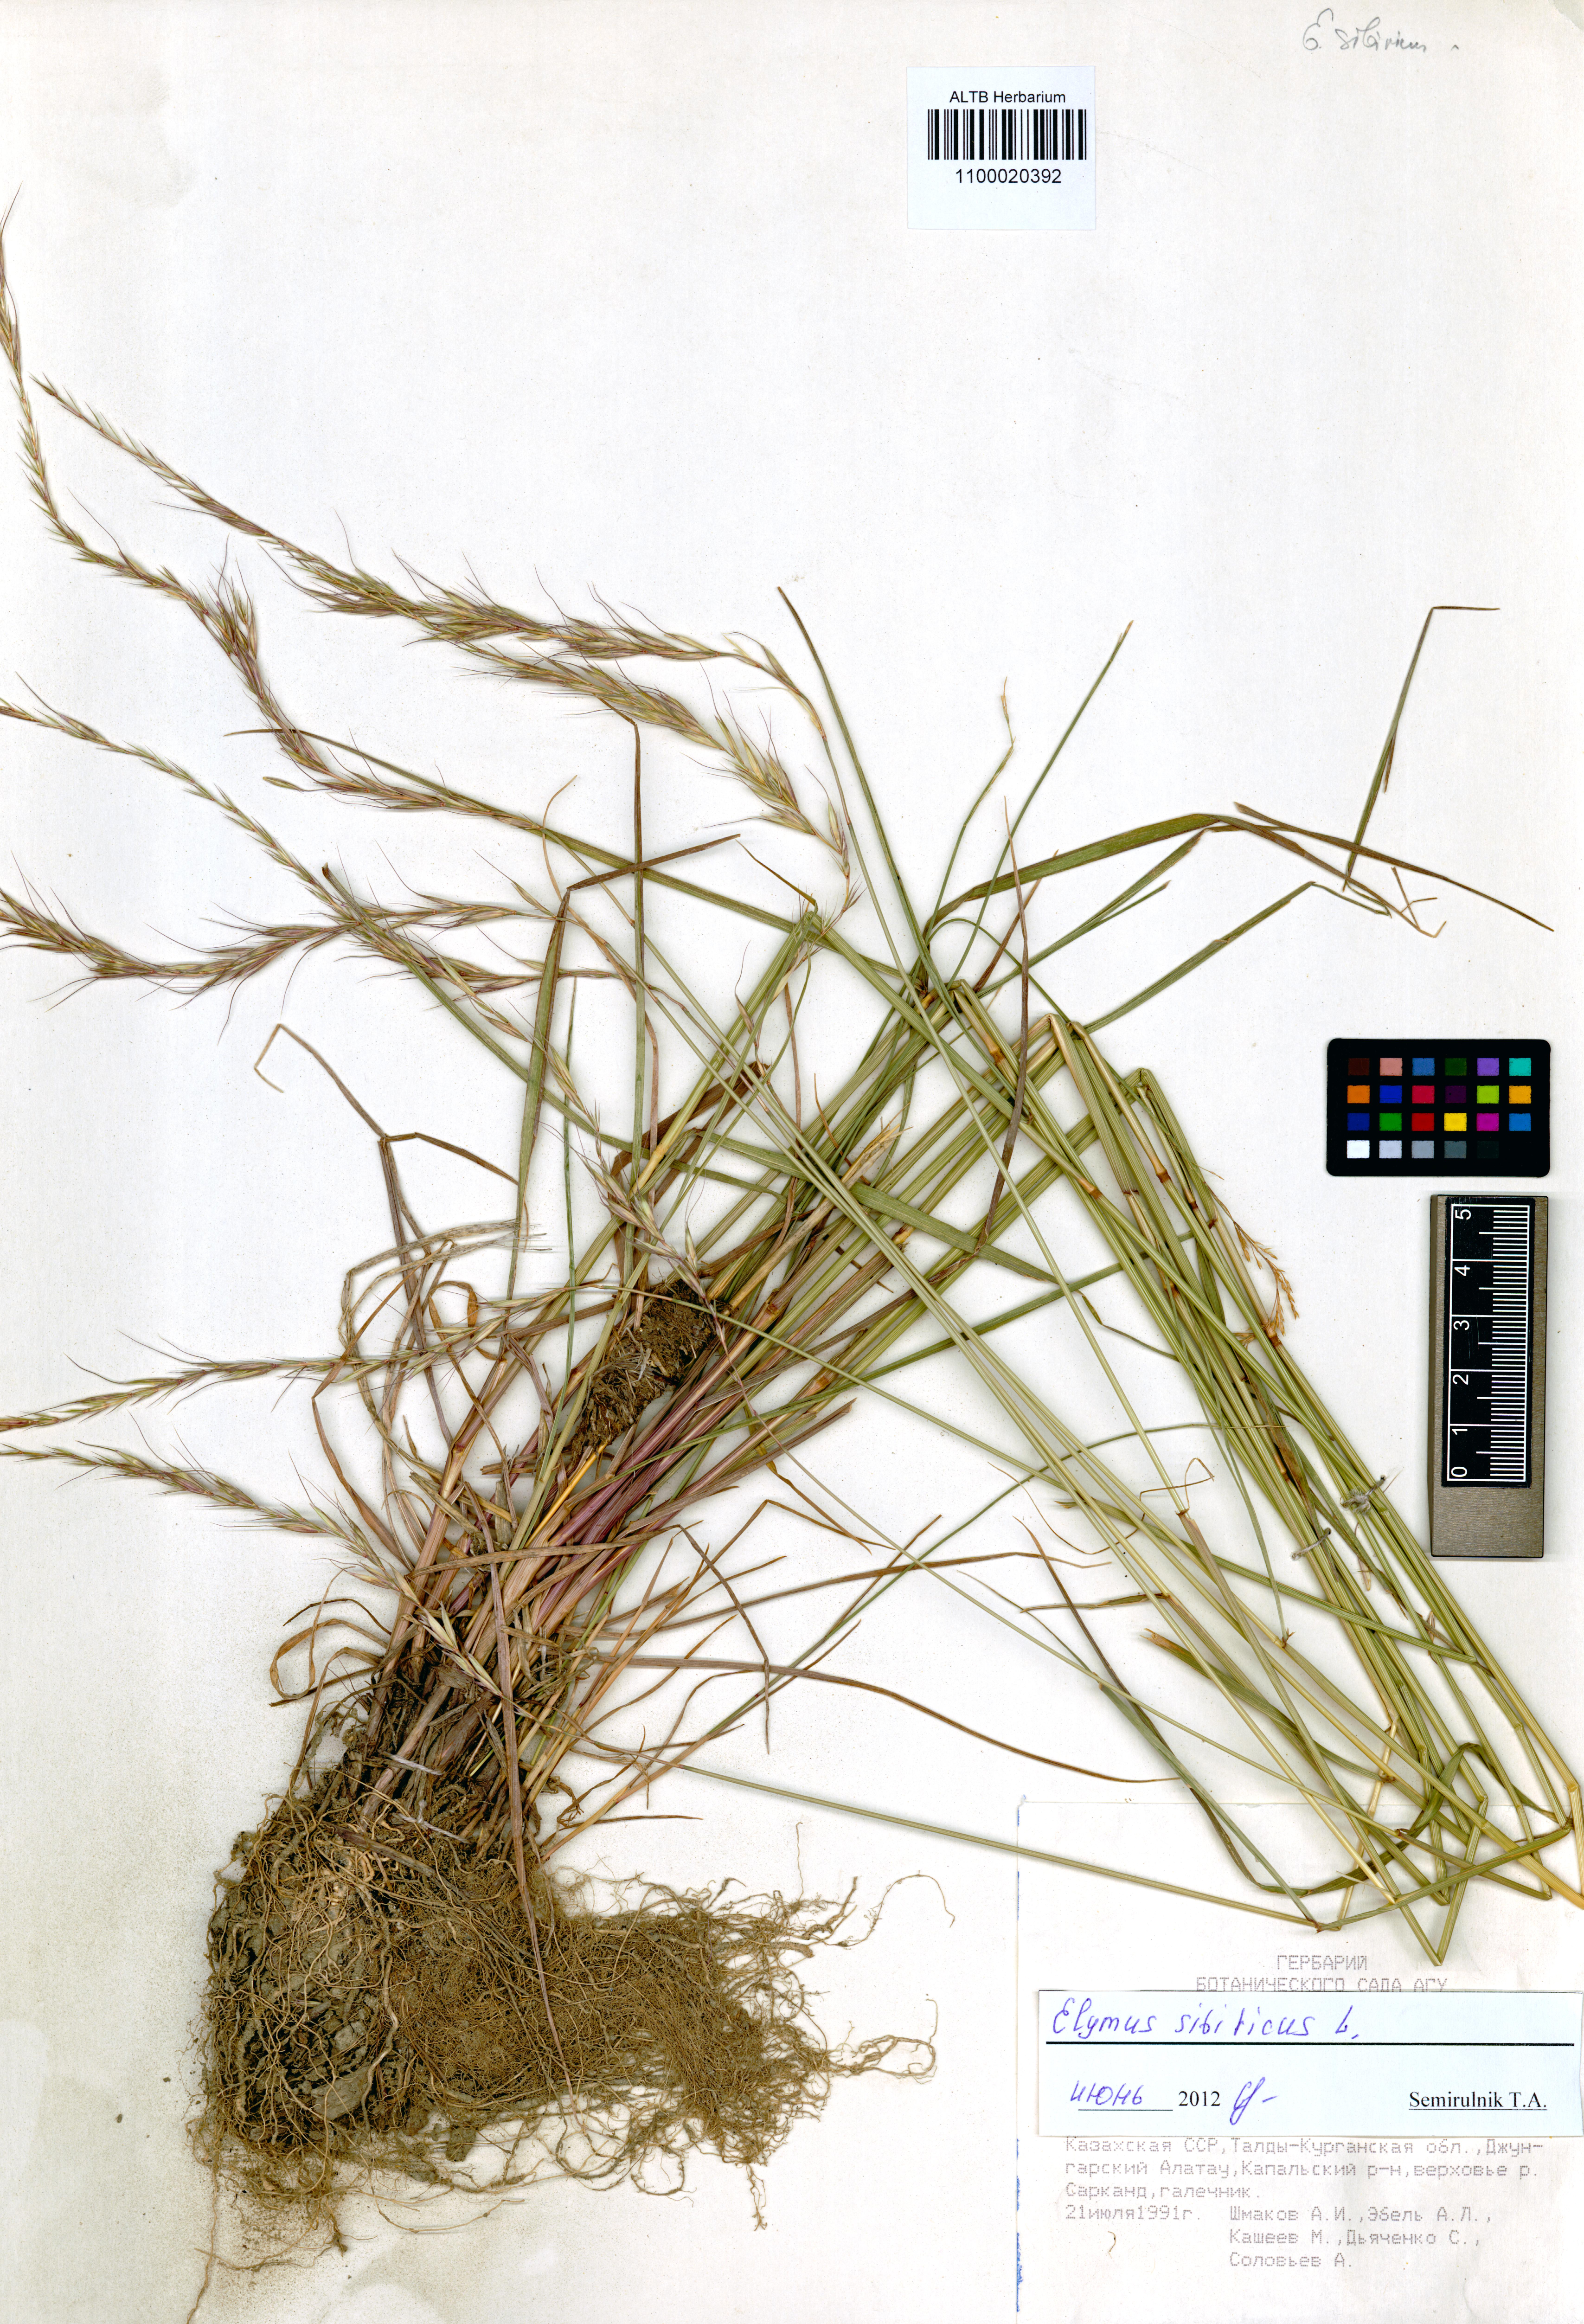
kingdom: Plantae
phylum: Tracheophyta
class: Liliopsida
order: Poales
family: Poaceae
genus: Elymus
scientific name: Elymus sibiricus
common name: Siberian wildrye
